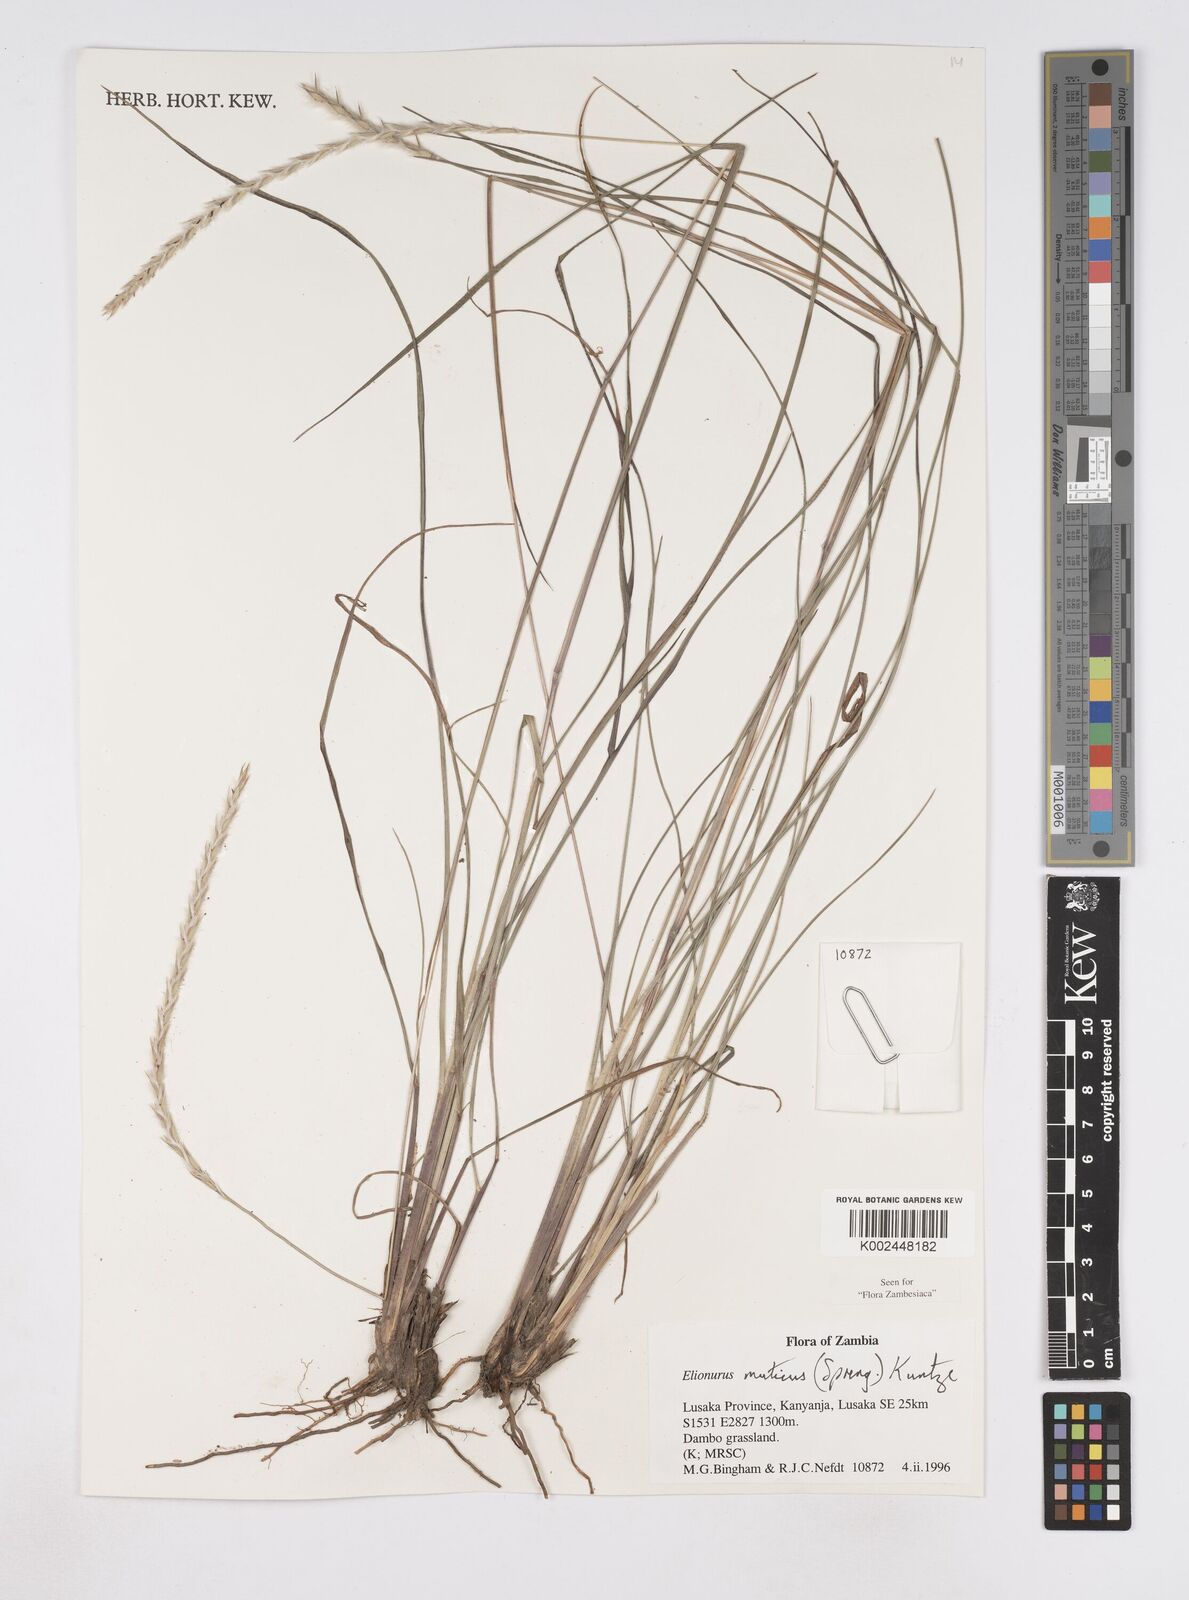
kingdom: Plantae
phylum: Tracheophyta
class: Liliopsida
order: Poales
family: Poaceae
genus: Elionurus
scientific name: Elionurus muticus
